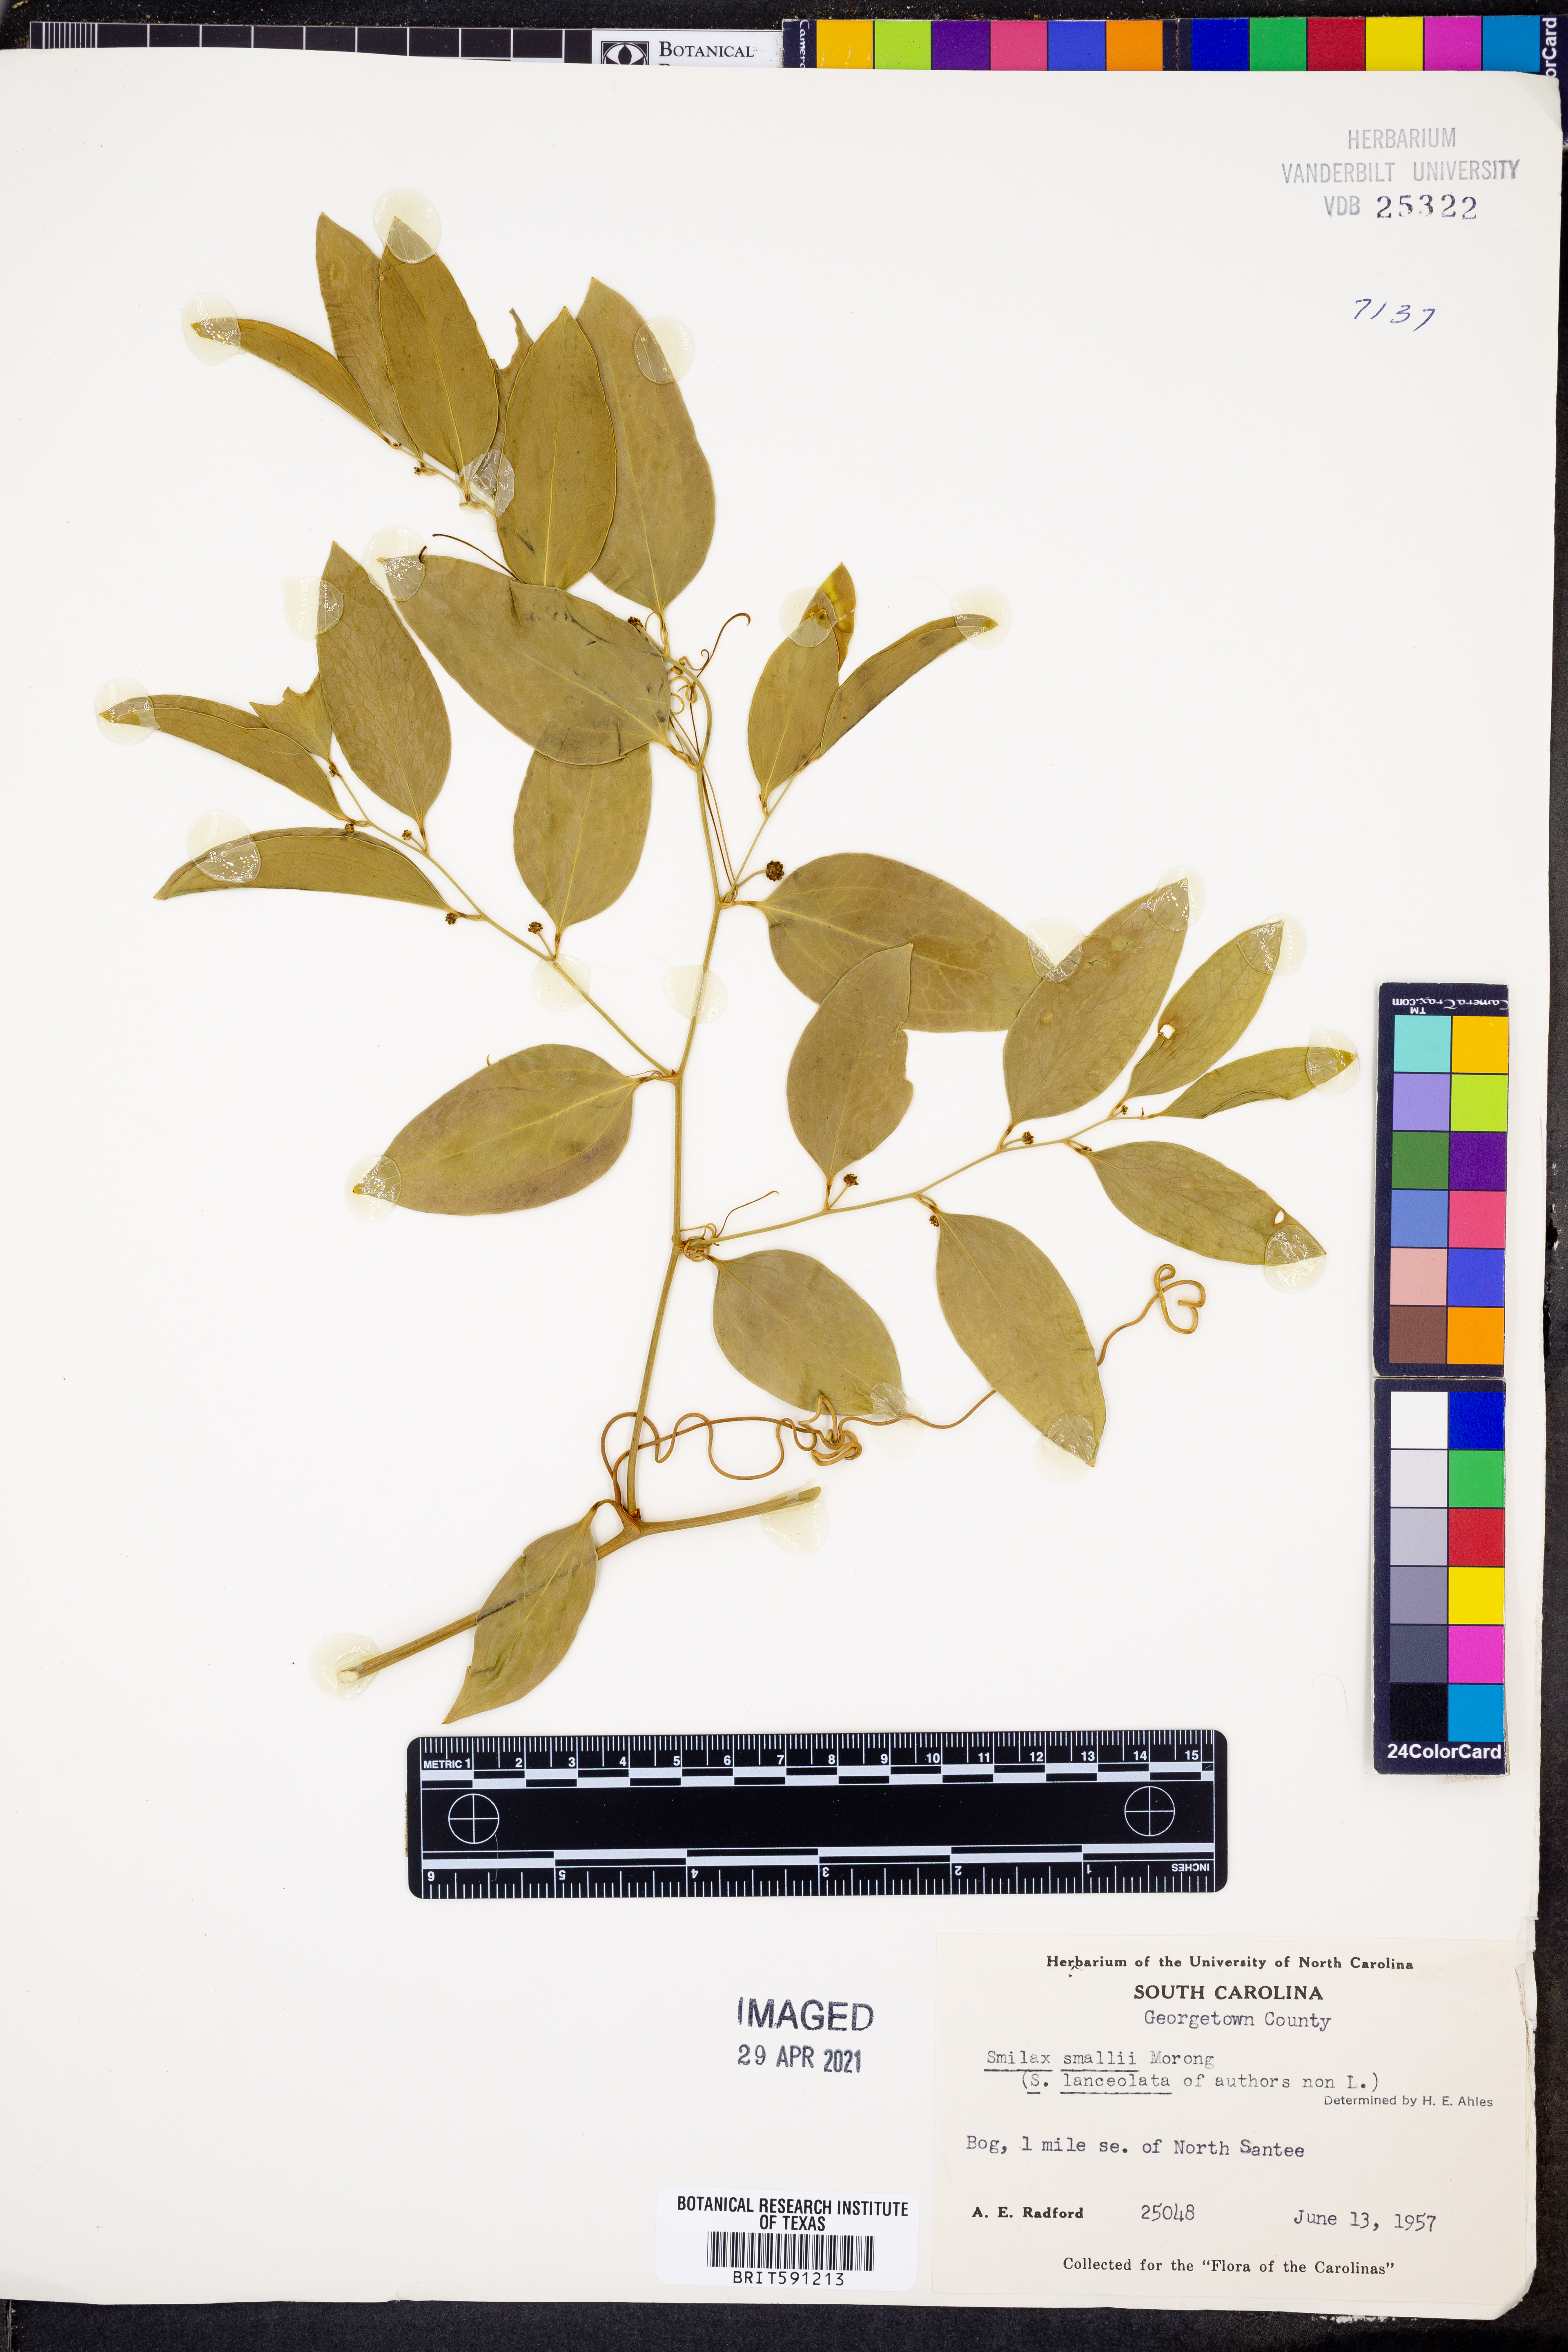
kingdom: Plantae
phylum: Tracheophyta
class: Liliopsida
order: Liliales
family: Smilacaceae
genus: Smilax
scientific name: Smilax maritima
